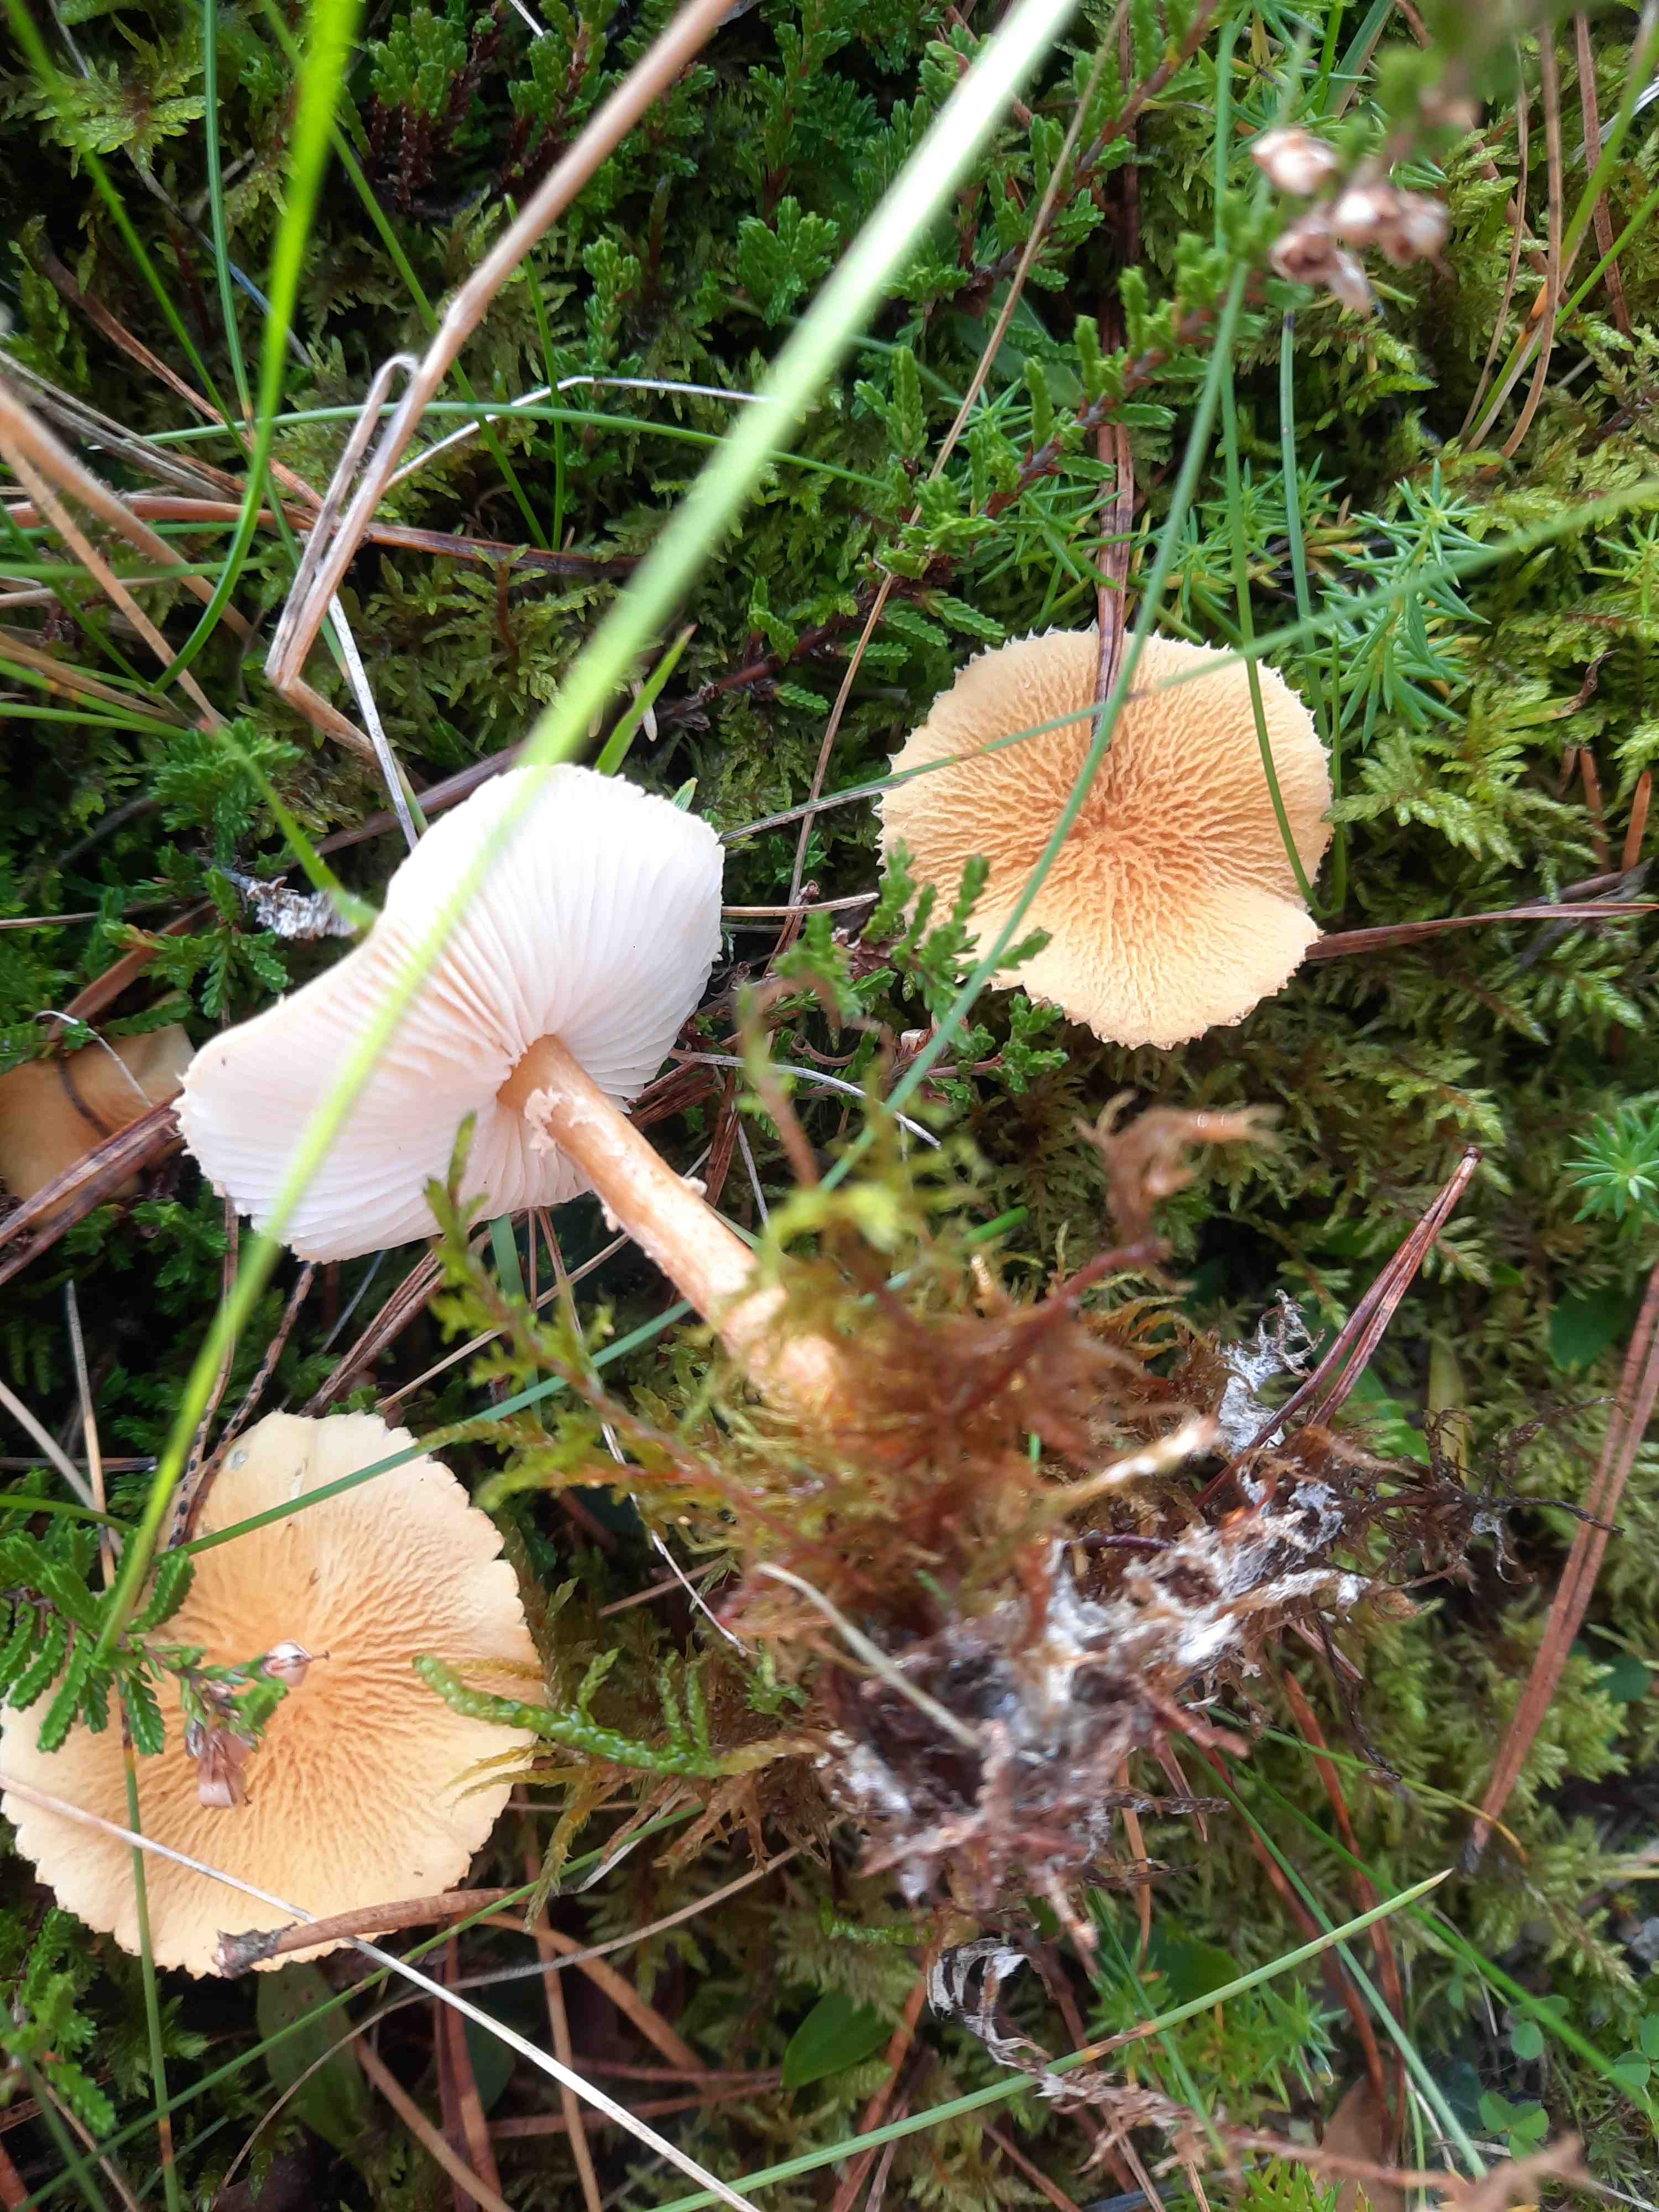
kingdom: Fungi
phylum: Basidiomycota
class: Agaricomycetes
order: Agaricales
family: Tricholomataceae
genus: Cystoderma
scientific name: Cystoderma amianthinum
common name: okkergul grynhat
